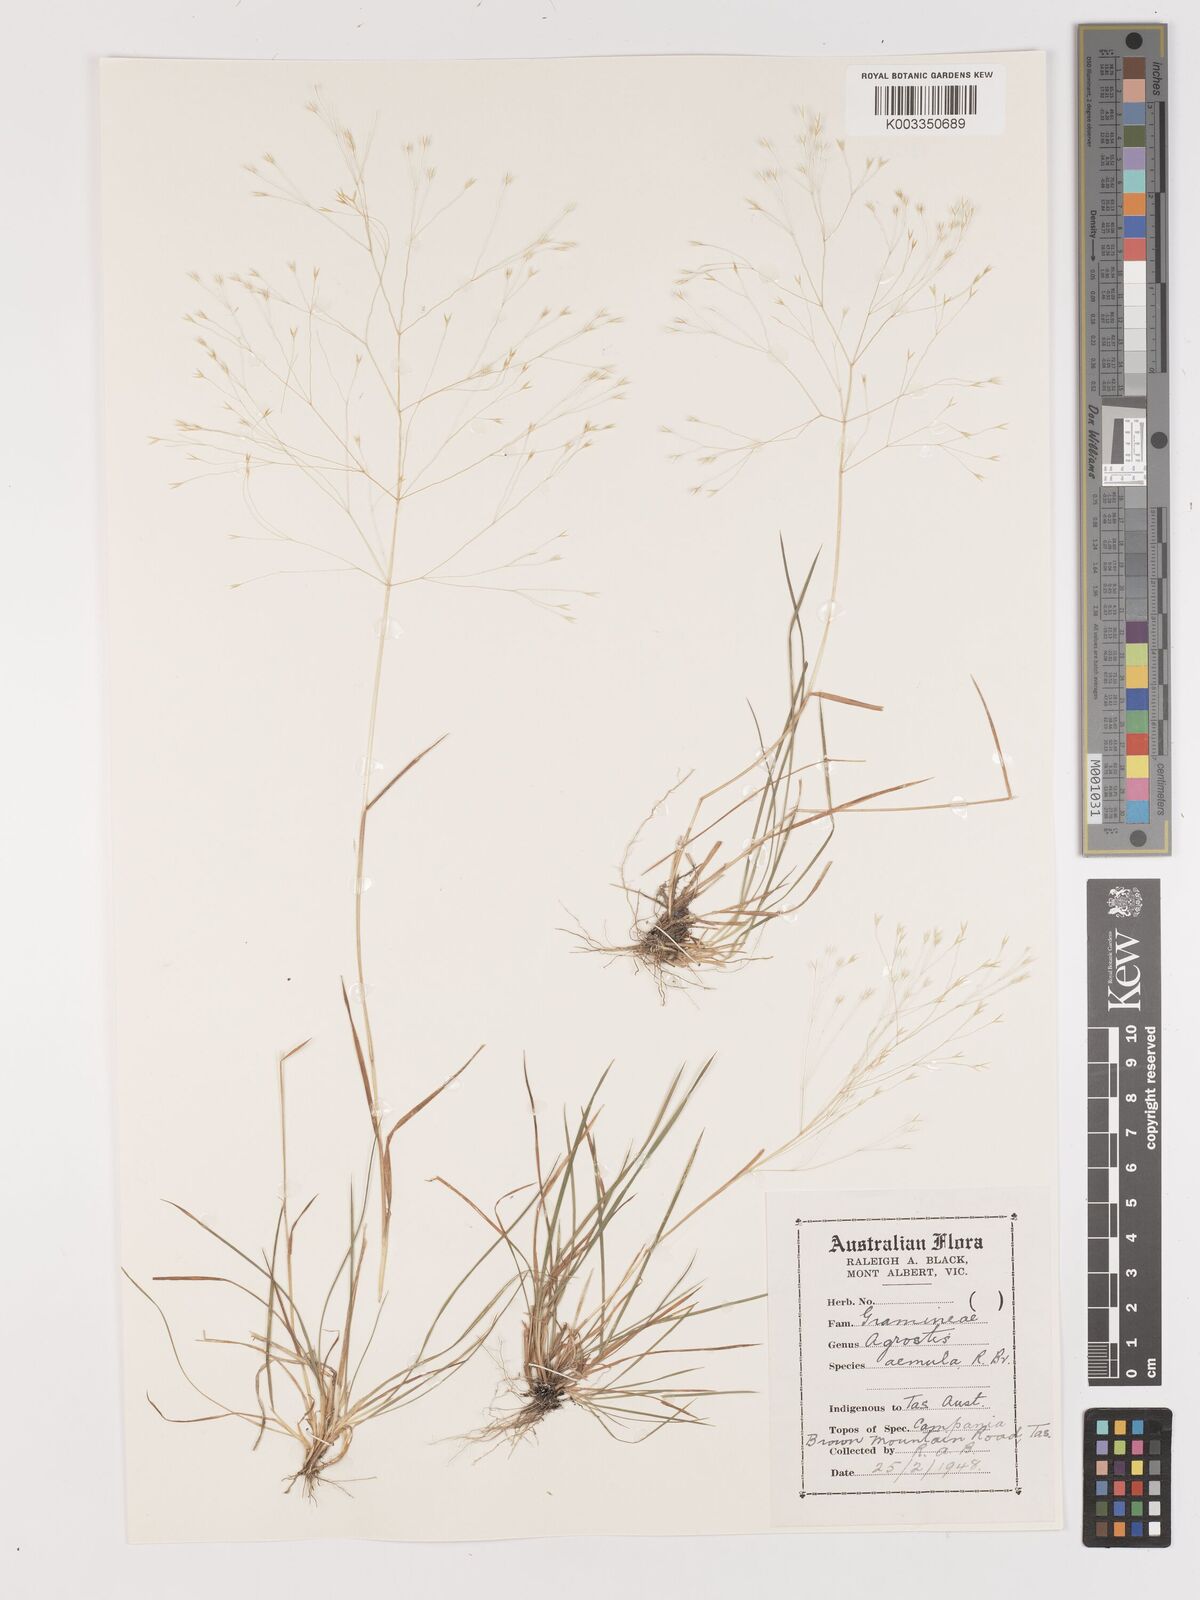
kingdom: Plantae
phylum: Tracheophyta
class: Liliopsida
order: Poales
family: Poaceae
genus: Lachnagrostis
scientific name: Lachnagrostis aemula
